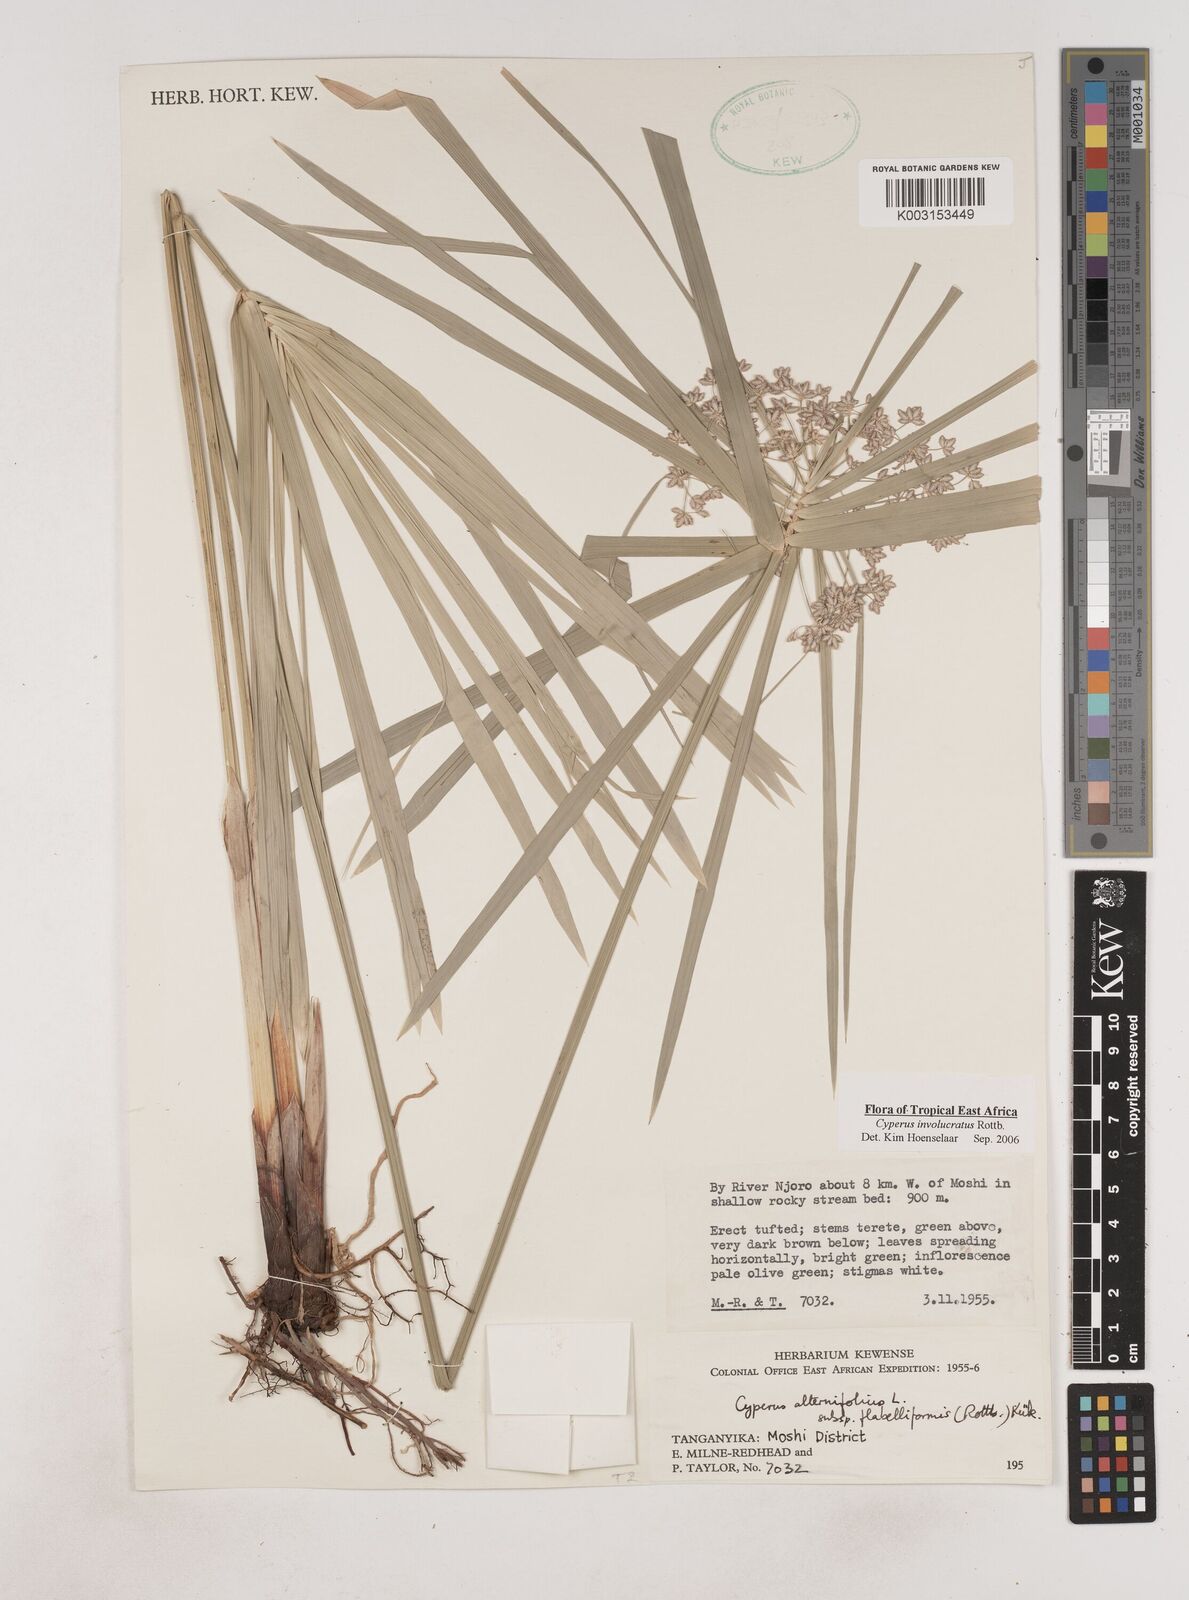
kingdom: Plantae
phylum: Tracheophyta
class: Liliopsida
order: Poales
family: Cyperaceae
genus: Cyperus
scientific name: Cyperus alternifolius
